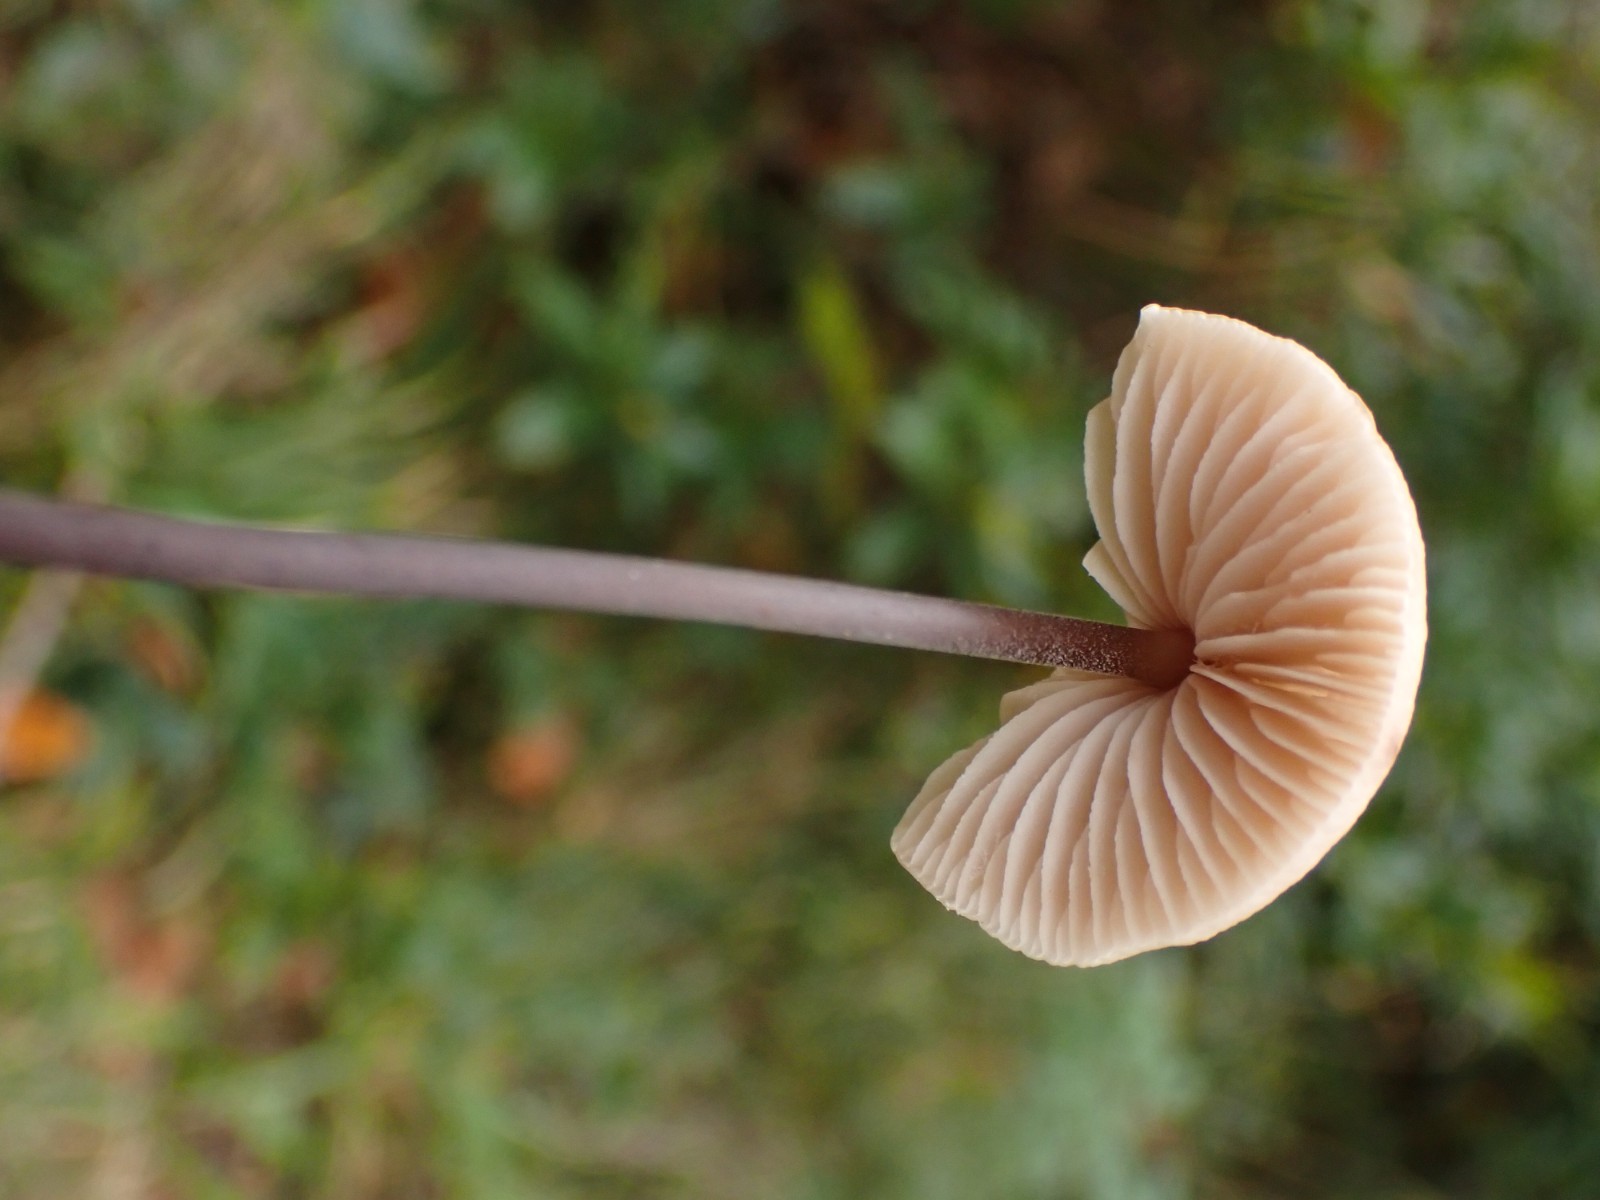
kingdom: Fungi
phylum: Basidiomycota
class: Agaricomycetes
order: Agaricales
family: Omphalotaceae
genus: Mycetinis
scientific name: Mycetinis alliaceus
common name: stor løghat
